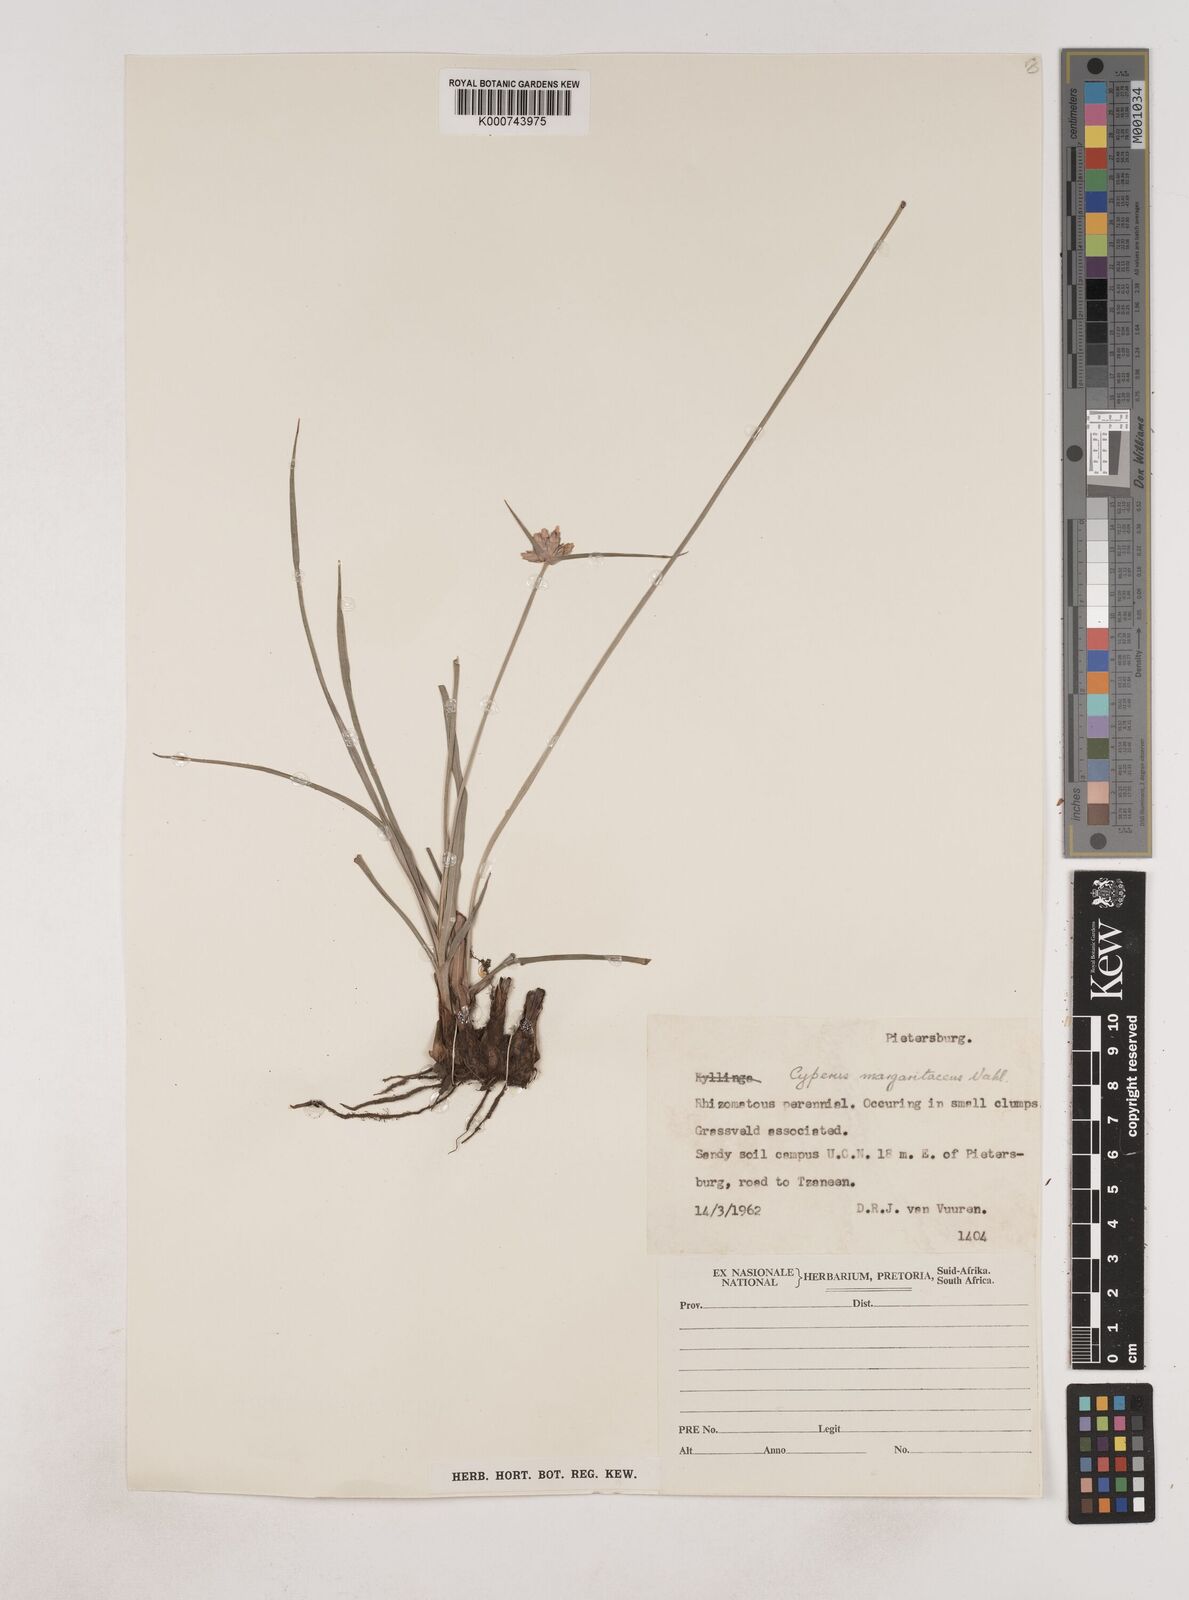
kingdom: Plantae
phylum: Tracheophyta
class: Liliopsida
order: Poales
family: Cyperaceae
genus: Cyperus
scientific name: Cyperus margaritaceus
